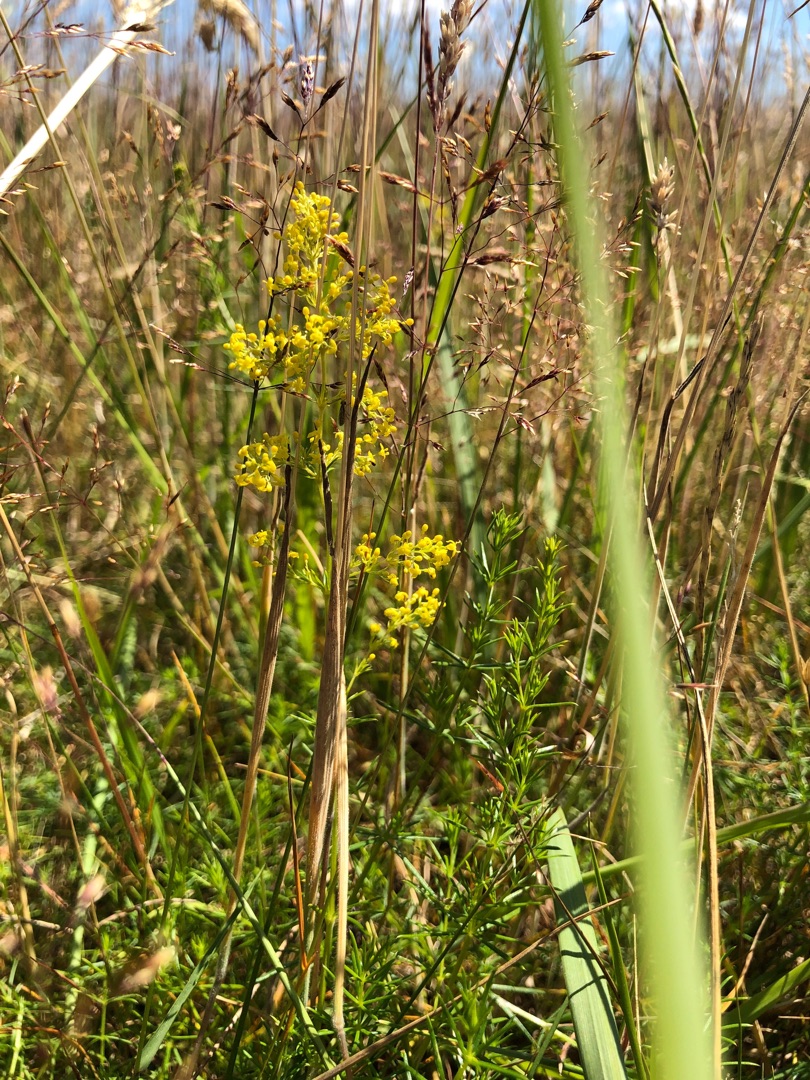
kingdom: Plantae
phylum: Tracheophyta
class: Magnoliopsida
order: Gentianales
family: Rubiaceae
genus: Galium
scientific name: Galium verum
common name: Gul snerre
